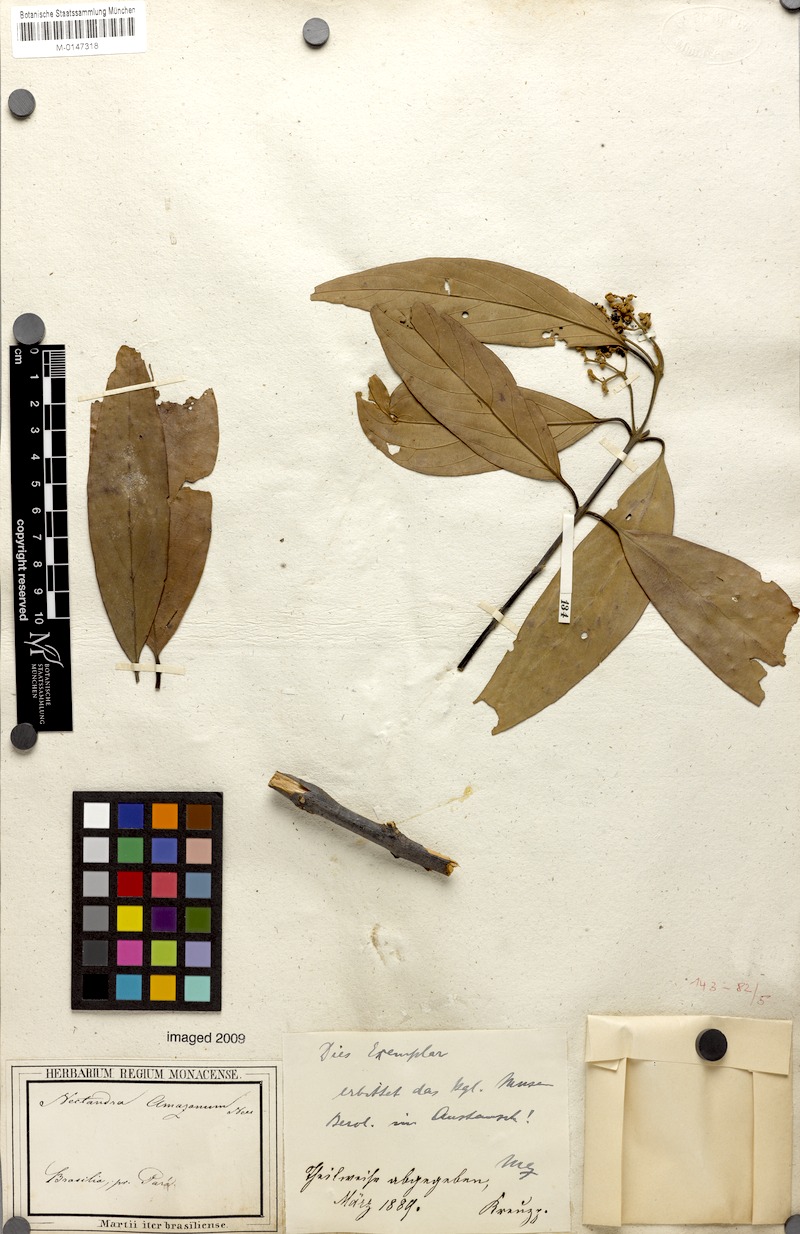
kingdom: Plantae
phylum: Tracheophyta
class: Magnoliopsida
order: Laurales
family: Lauraceae
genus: Nectandra
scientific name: Nectandra amazonum
